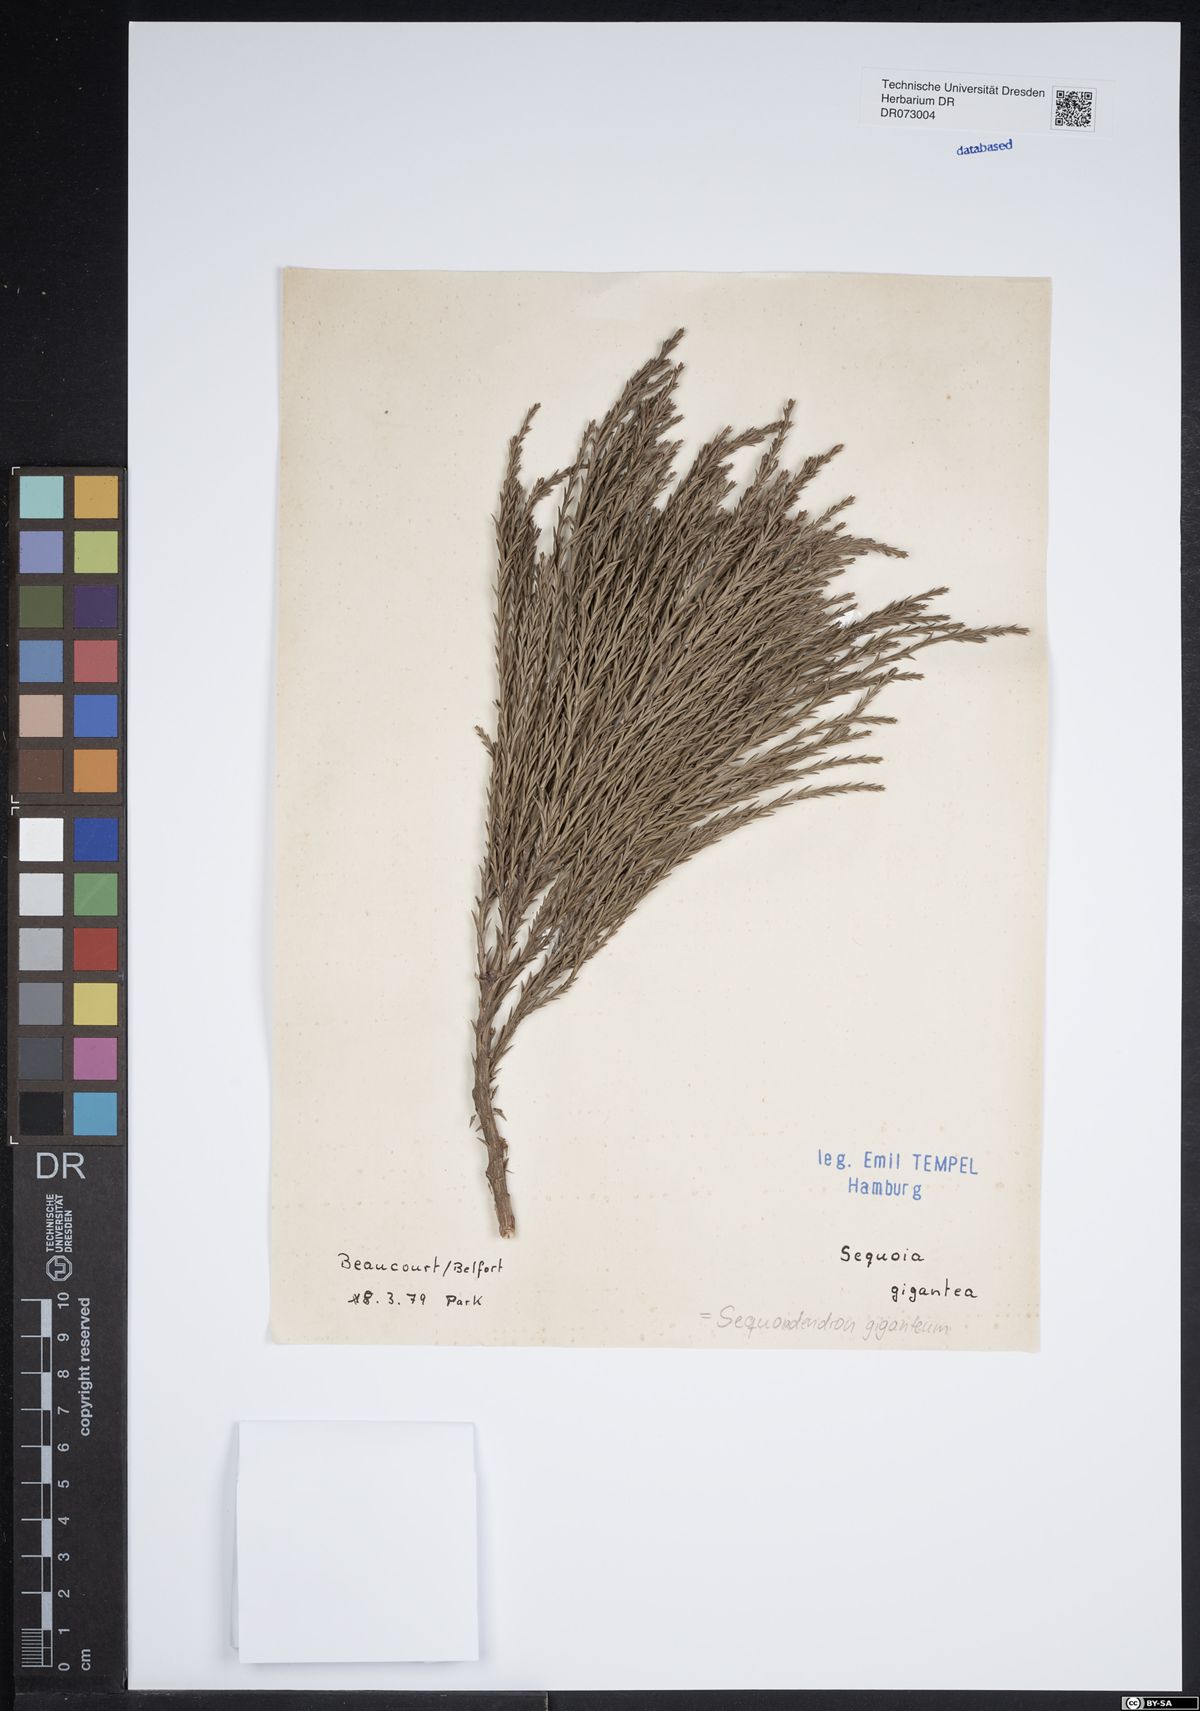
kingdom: Plantae
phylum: Tracheophyta
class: Pinopsida
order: Pinales
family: Cupressaceae
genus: Sequoiadendron
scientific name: Sequoiadendron giganteum
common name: Wellingtonia
